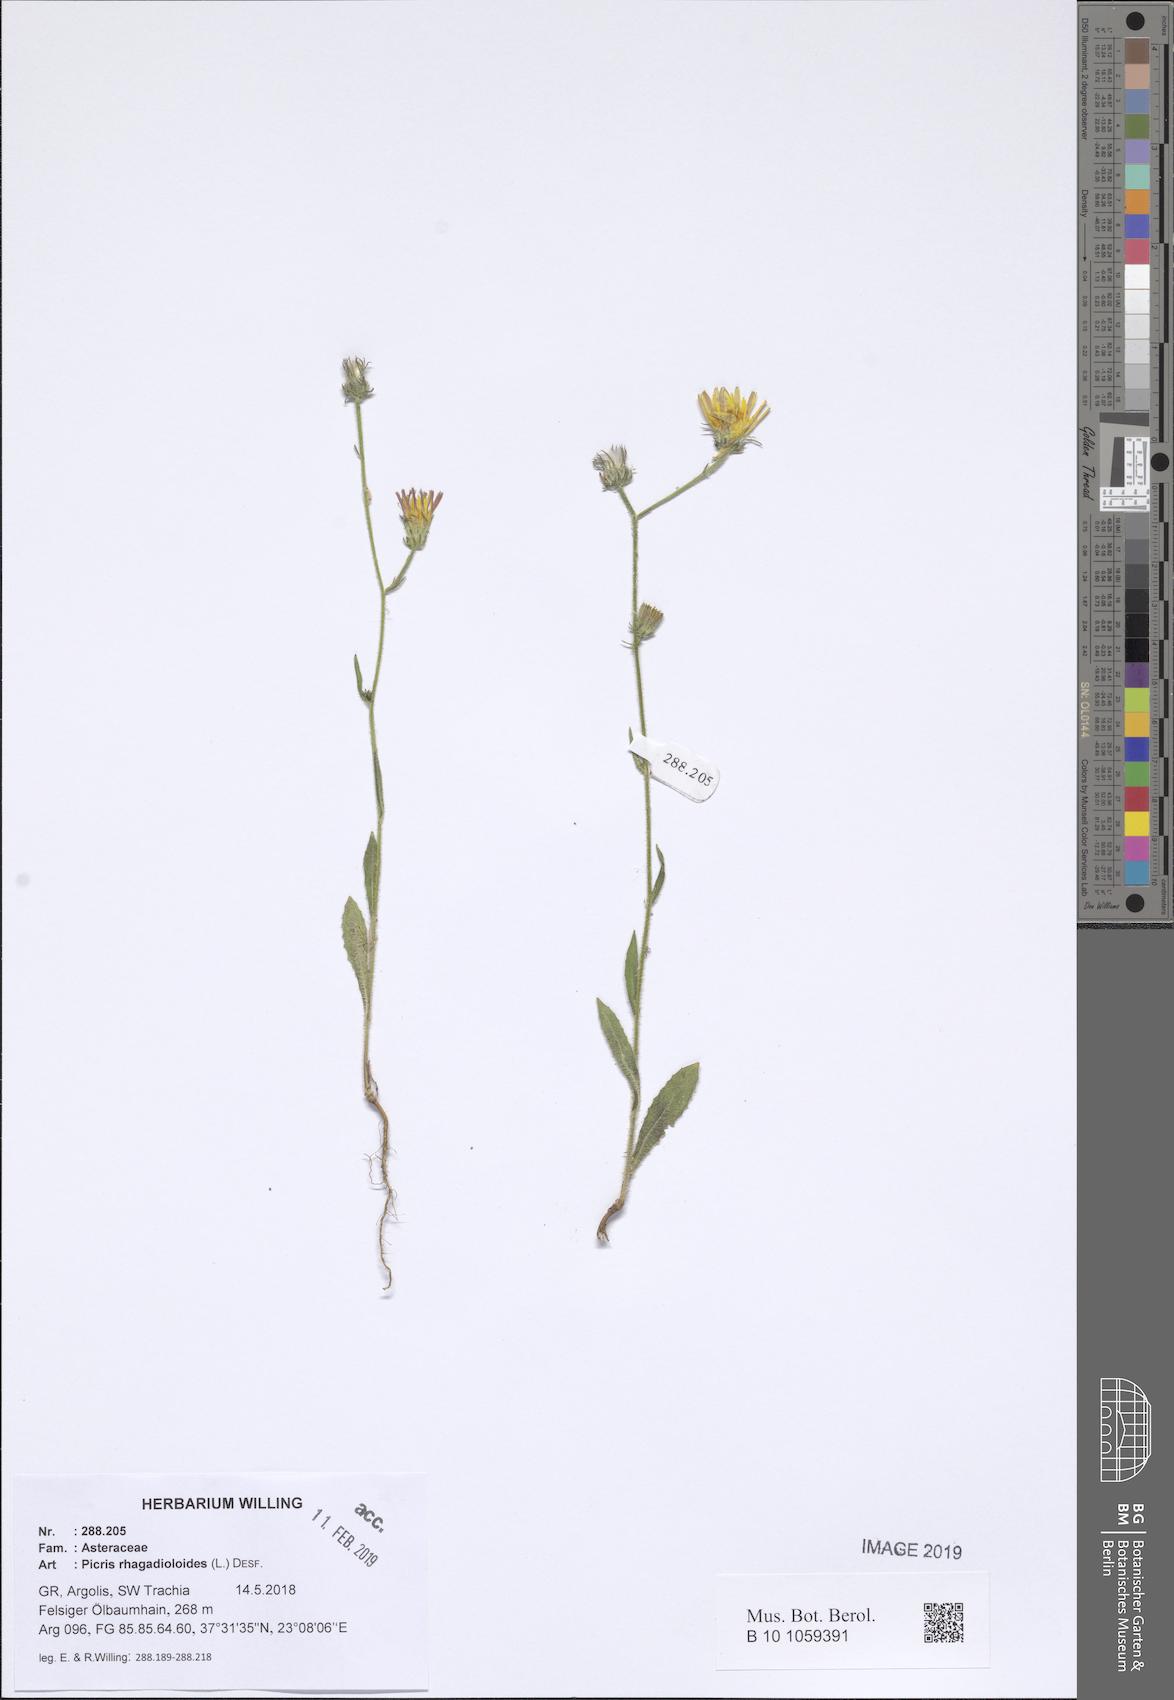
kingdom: Plantae
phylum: Tracheophyta
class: Magnoliopsida
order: Asterales
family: Asteraceae
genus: Picris
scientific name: Picris rhagadioloides
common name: Oxtongue
